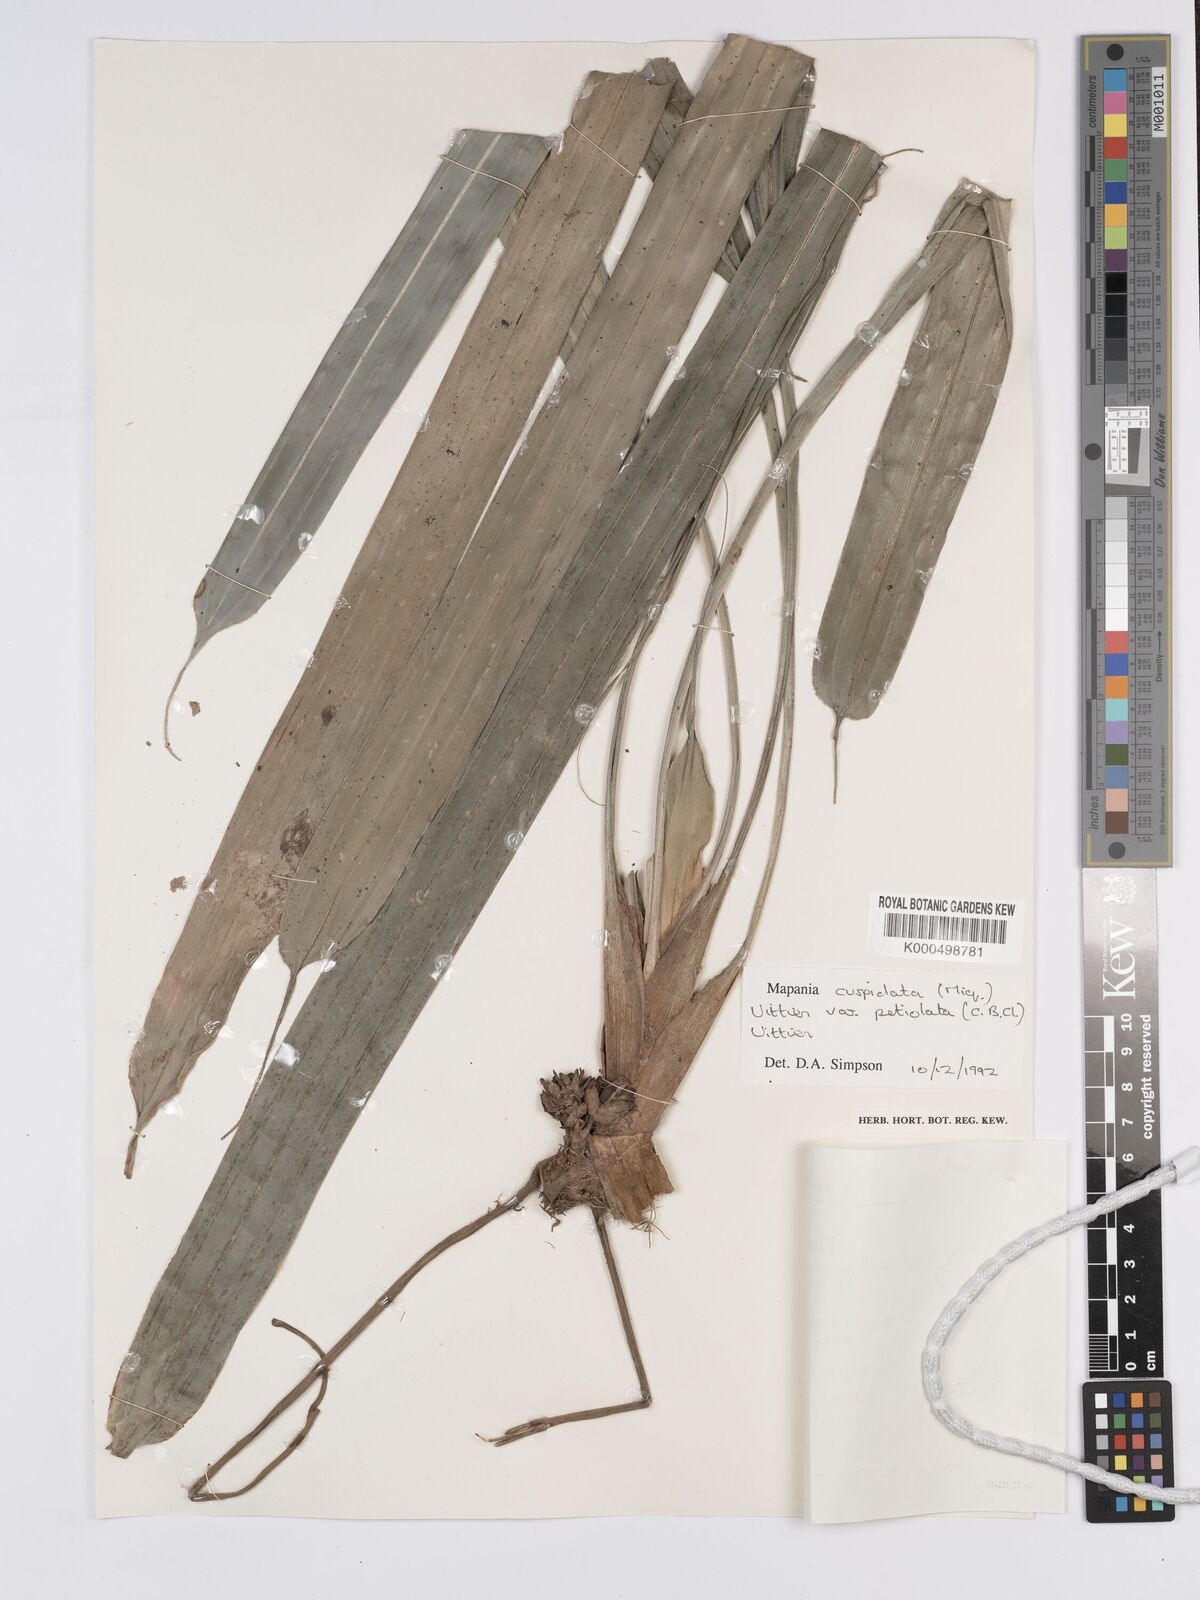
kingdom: Plantae
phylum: Tracheophyta
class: Liliopsida
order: Poales
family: Cyperaceae
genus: Mapania
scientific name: Mapania cuspidata
